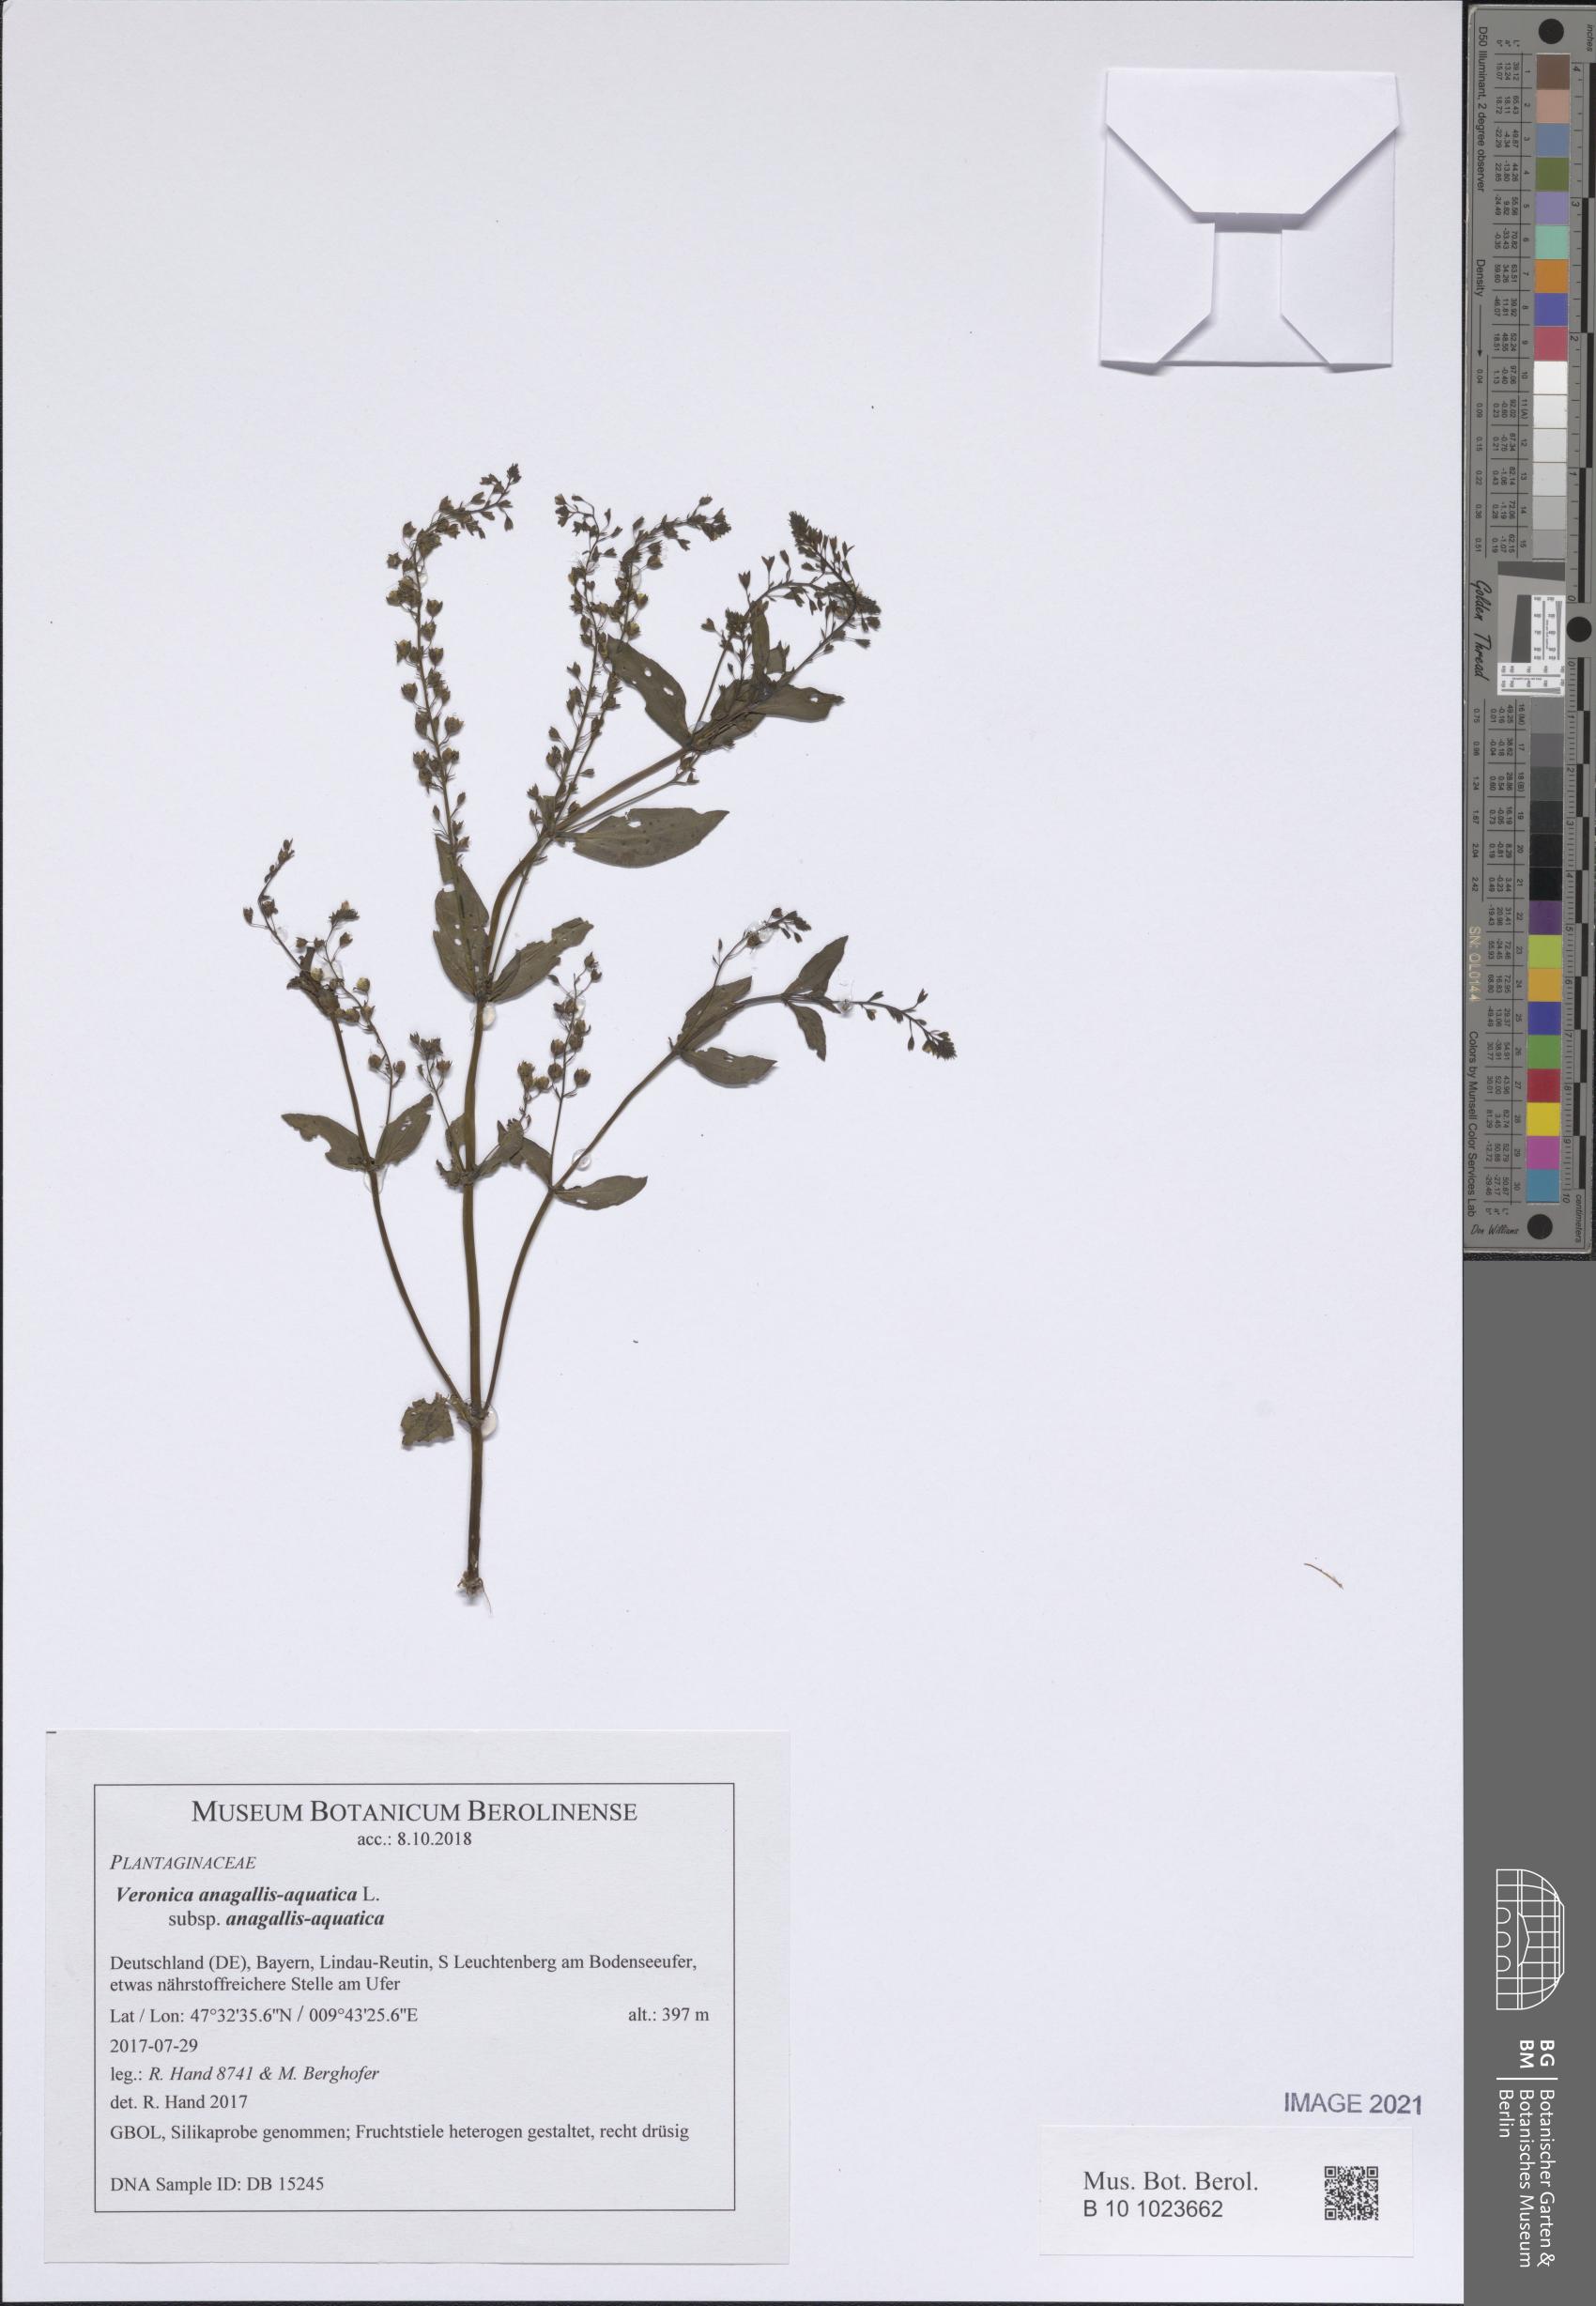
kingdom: Plantae
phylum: Tracheophyta
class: Magnoliopsida
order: Lamiales
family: Plantaginaceae
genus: Veronica
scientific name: Veronica anagallis-aquatica
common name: Water speedwell
